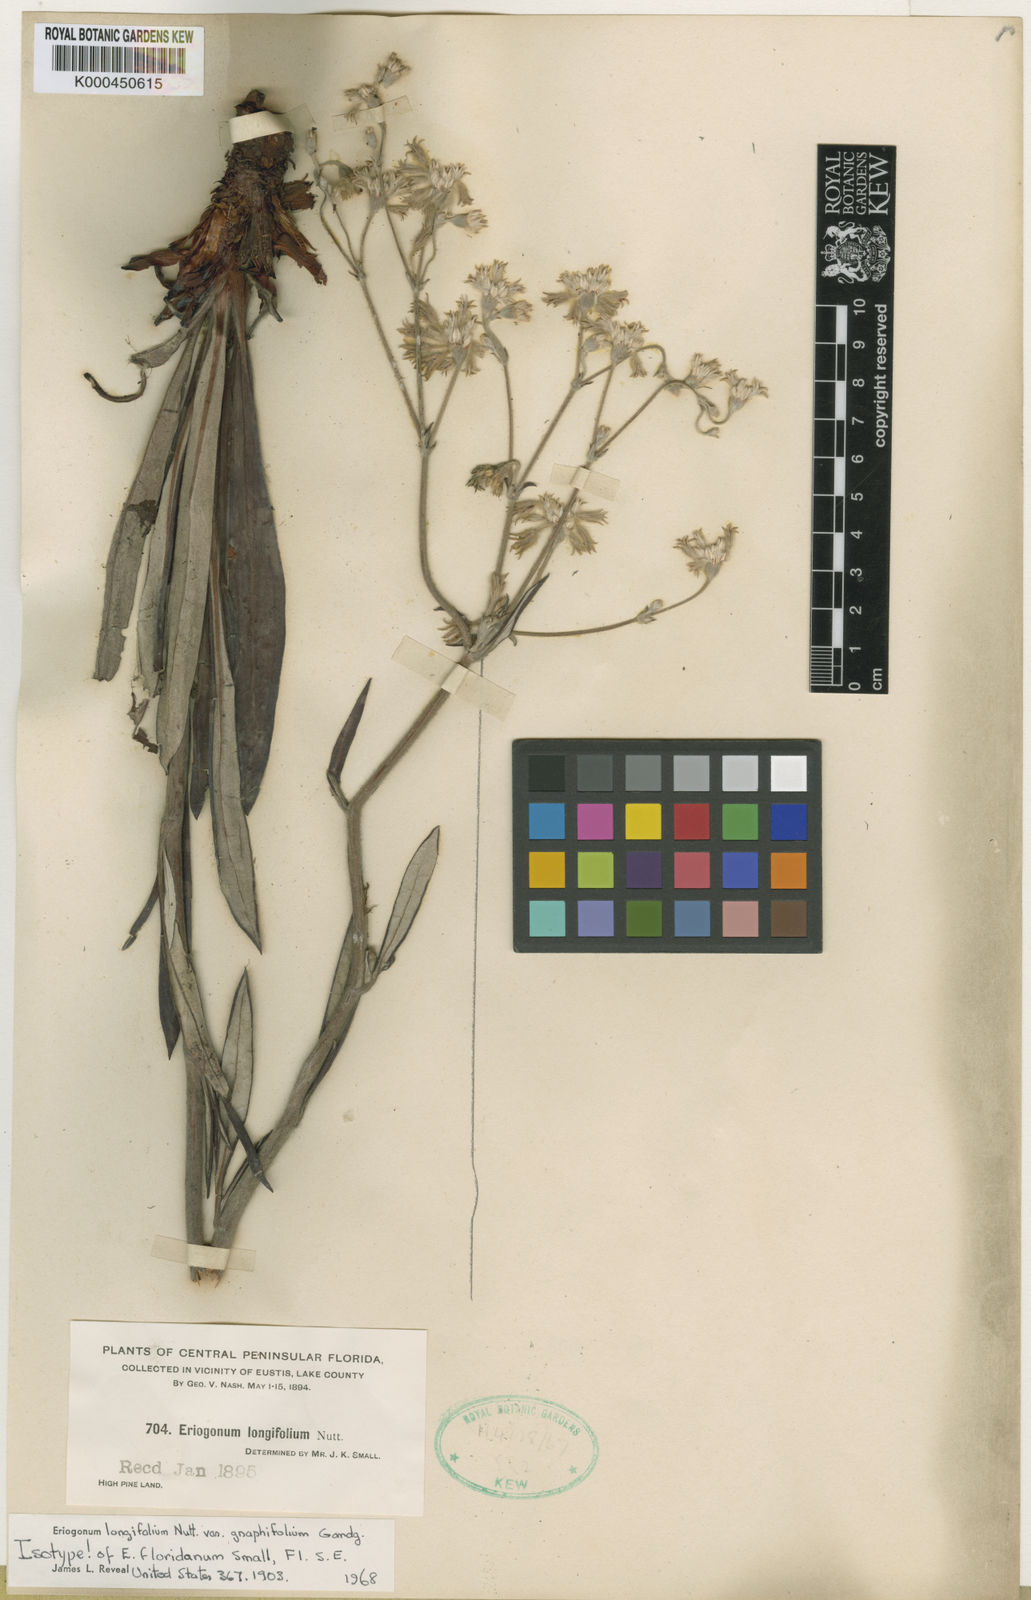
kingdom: Plantae
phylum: Tracheophyta
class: Magnoliopsida
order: Caryophyllales
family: Polygonaceae
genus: Eriogonum
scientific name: Eriogonum longifolium
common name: Longleaf wild buckwheat
